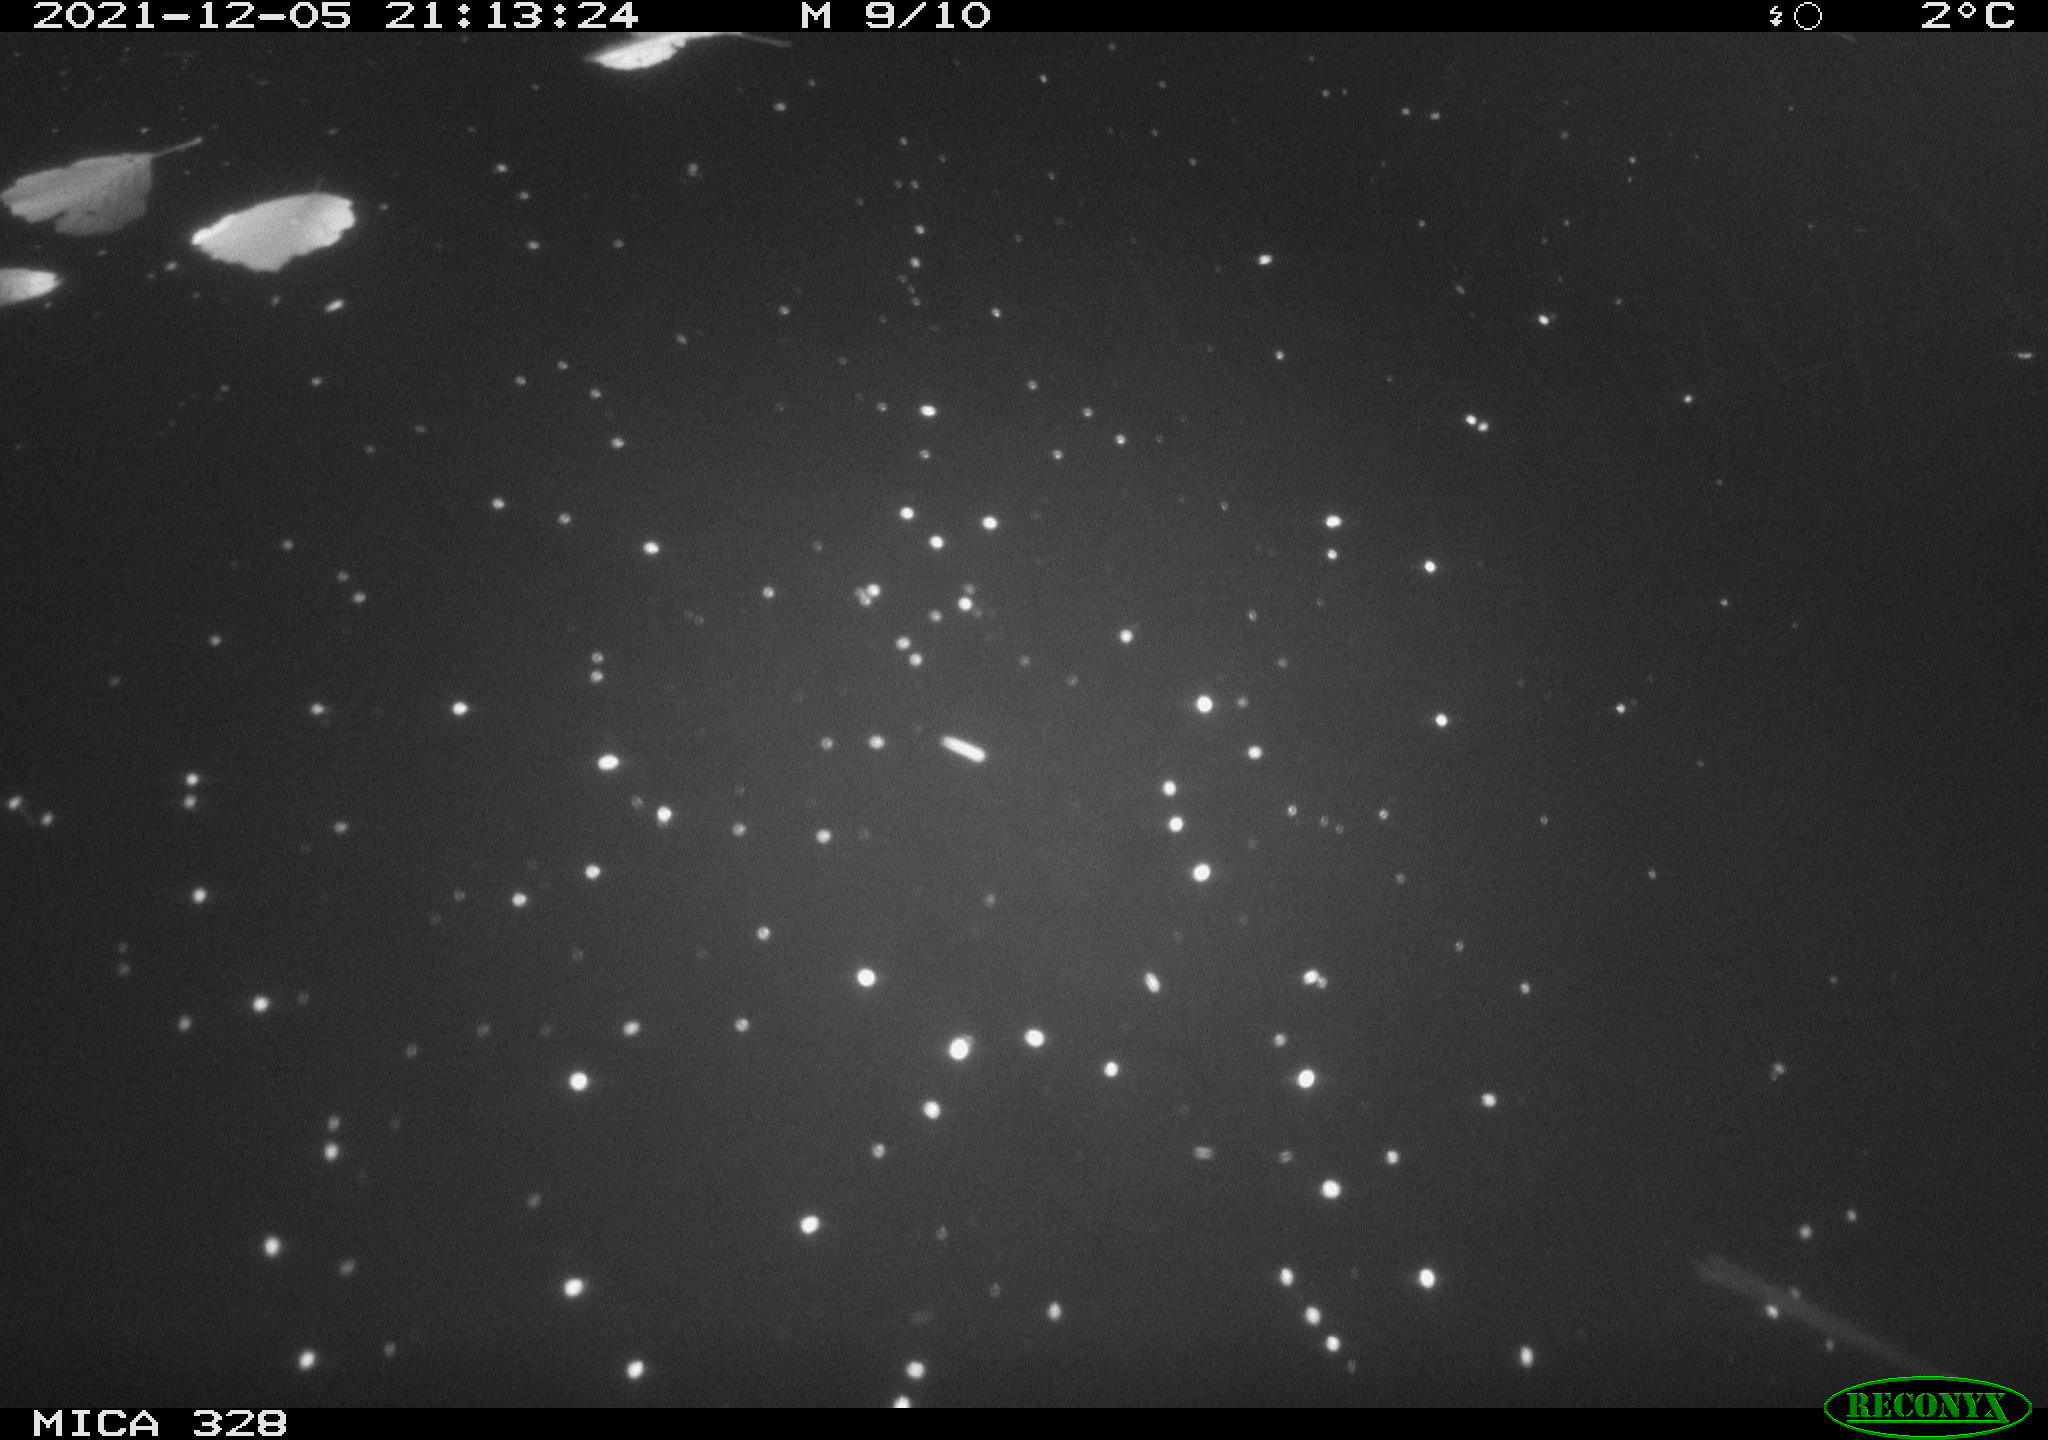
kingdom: Animalia
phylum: Chordata
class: Aves
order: Anseriformes
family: Anatidae
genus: Anas
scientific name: Anas platyrhynchos
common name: Mallard
